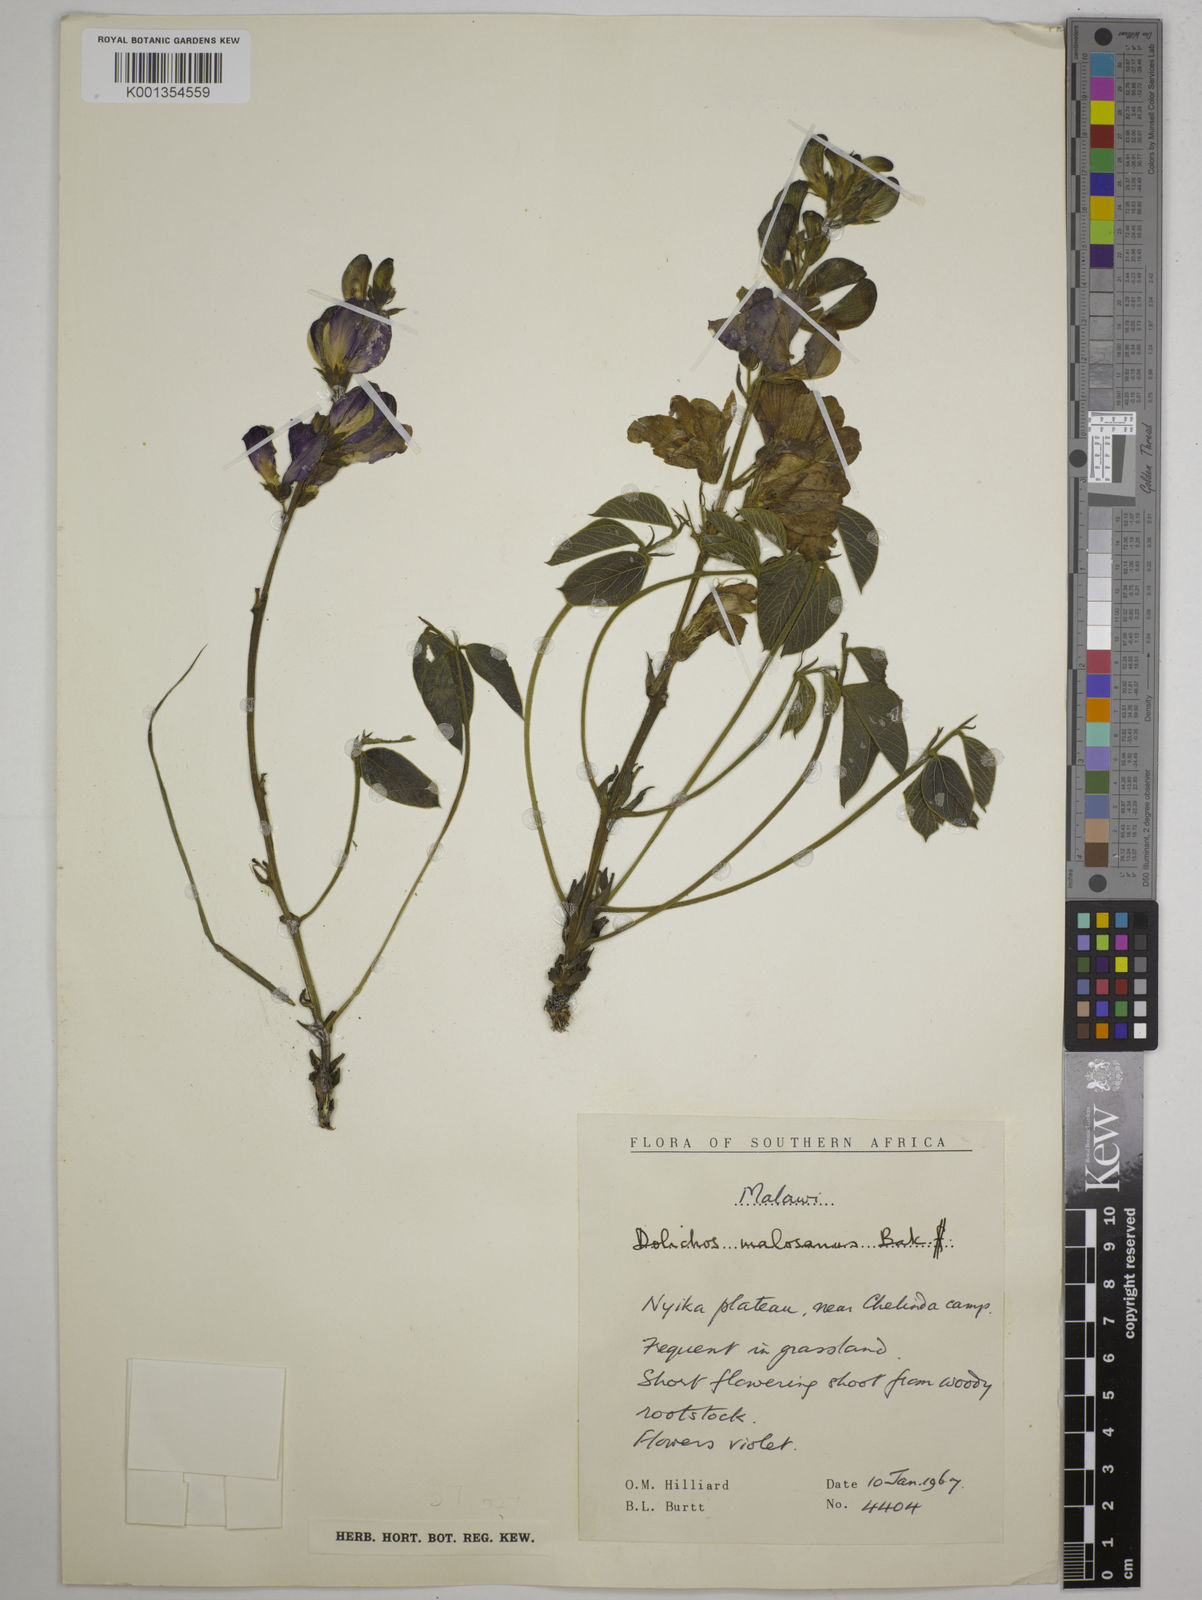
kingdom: Plantae
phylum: Tracheophyta
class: Magnoliopsida
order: Fabales
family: Fabaceae
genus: Dolichos
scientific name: Dolichos kilimandscharicus
